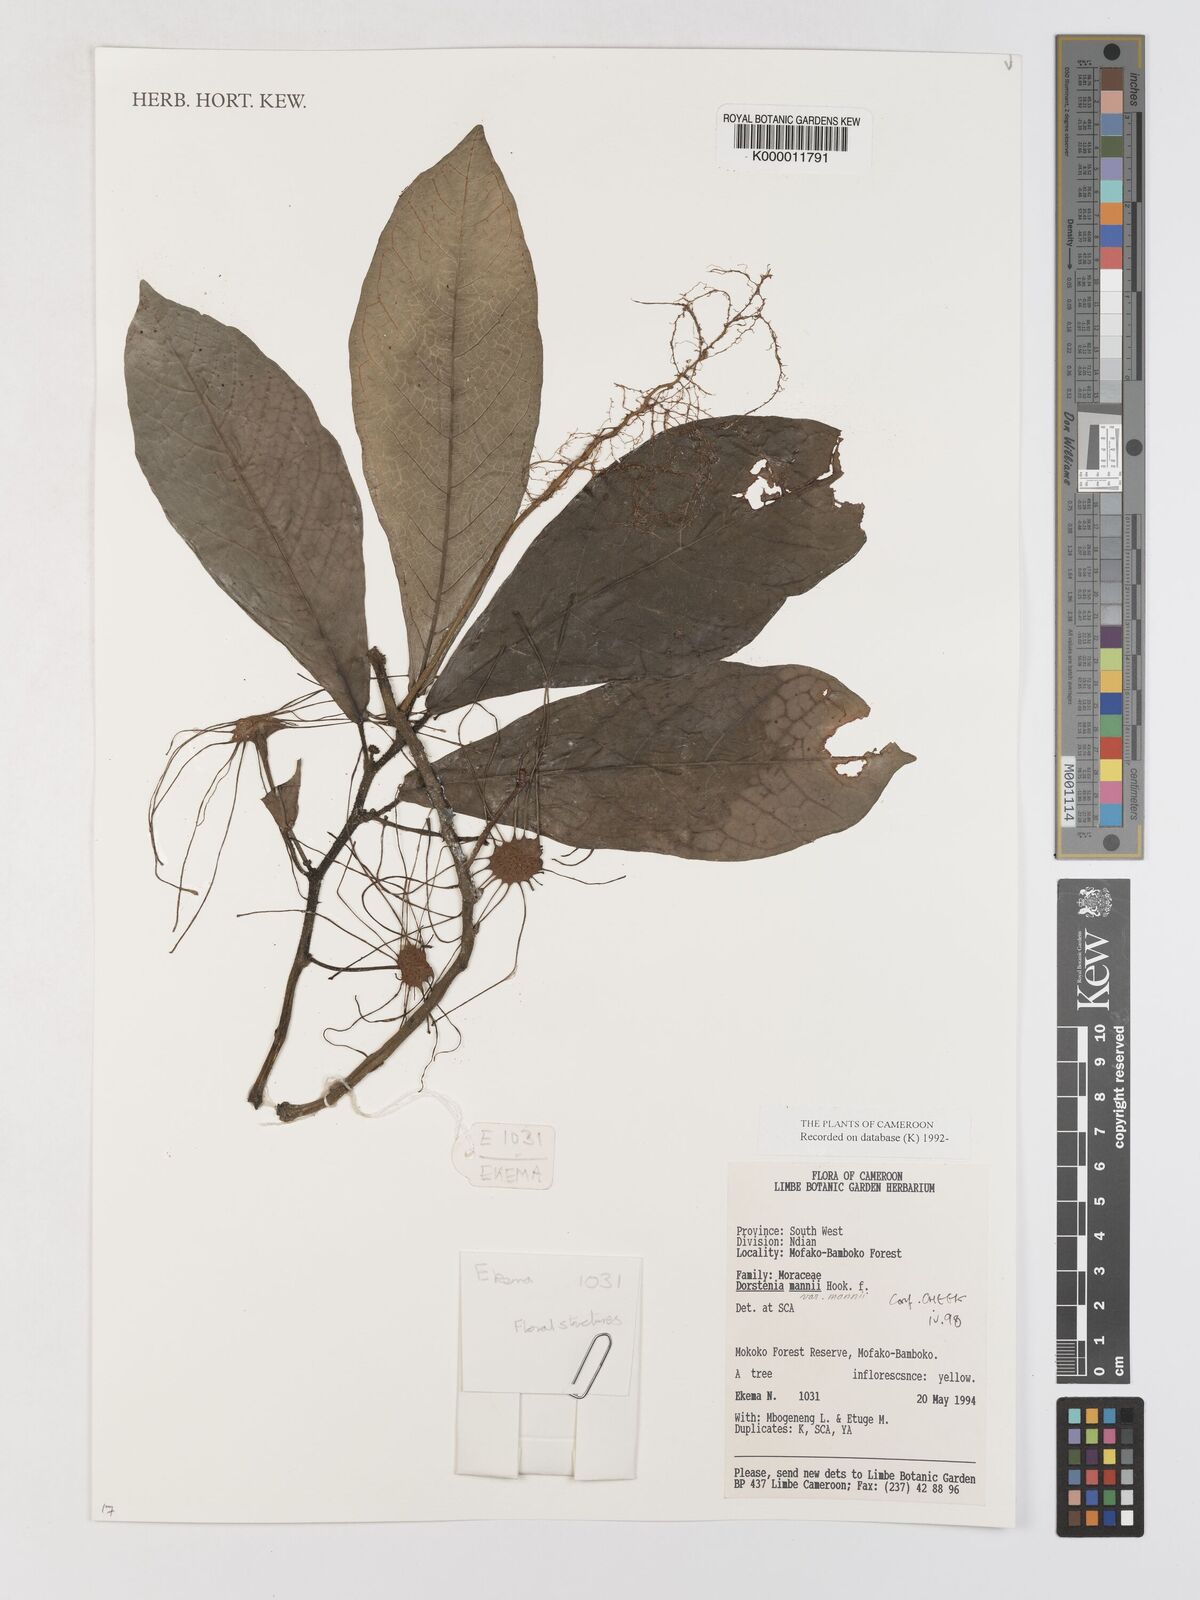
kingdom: Plantae
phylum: Tracheophyta
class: Magnoliopsida
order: Rosales
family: Moraceae
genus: Dorstenia
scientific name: Dorstenia mannii
